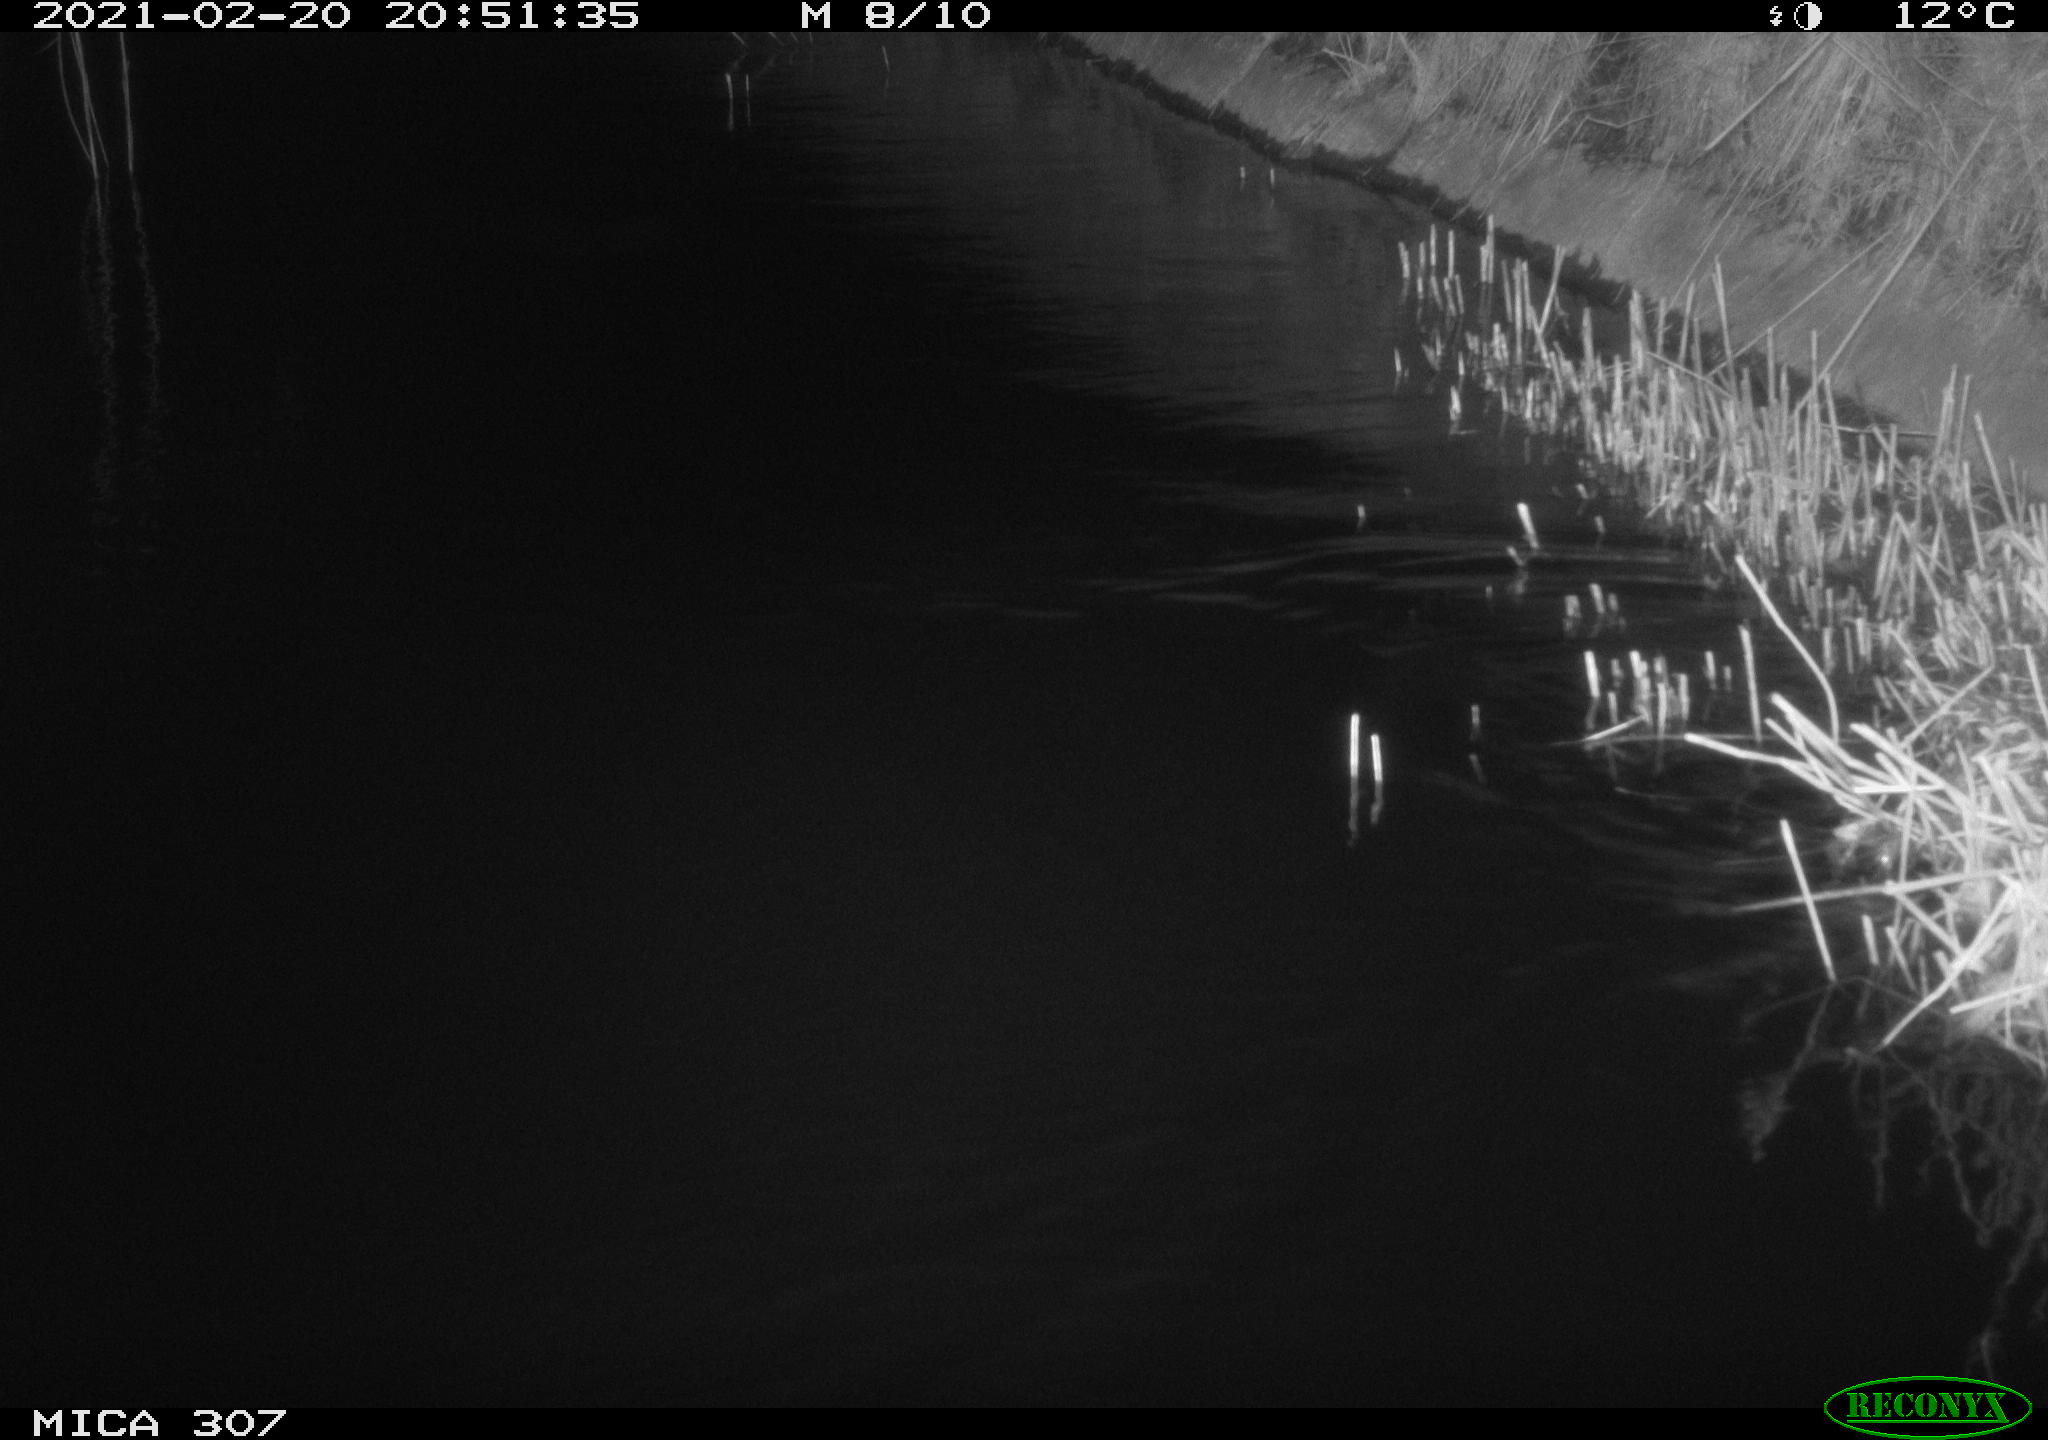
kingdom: Animalia
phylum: Chordata
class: Mammalia
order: Rodentia
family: Muridae
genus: Rattus
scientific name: Rattus norvegicus
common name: Brown rat
